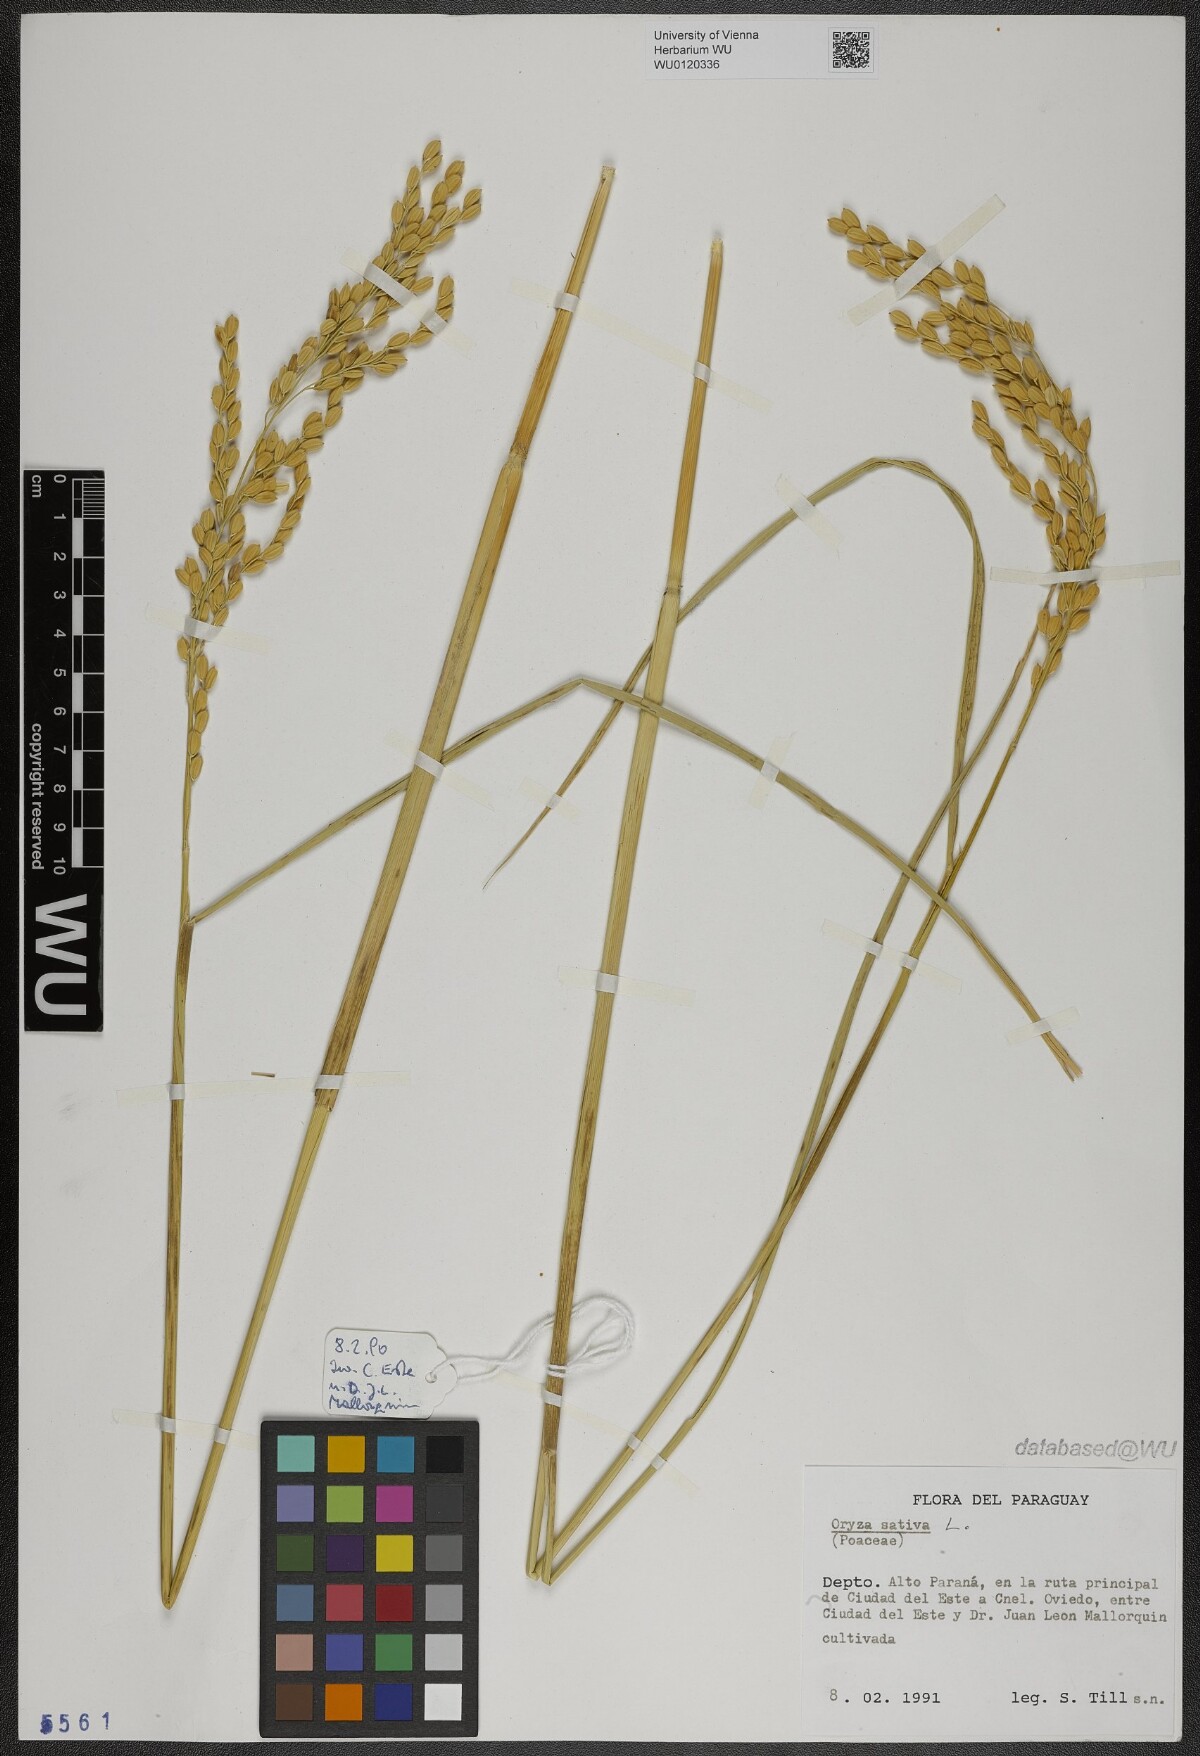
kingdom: Plantae
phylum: Tracheophyta
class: Liliopsida
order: Poales
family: Poaceae
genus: Oryza
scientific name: Oryza sativa
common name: Rice
